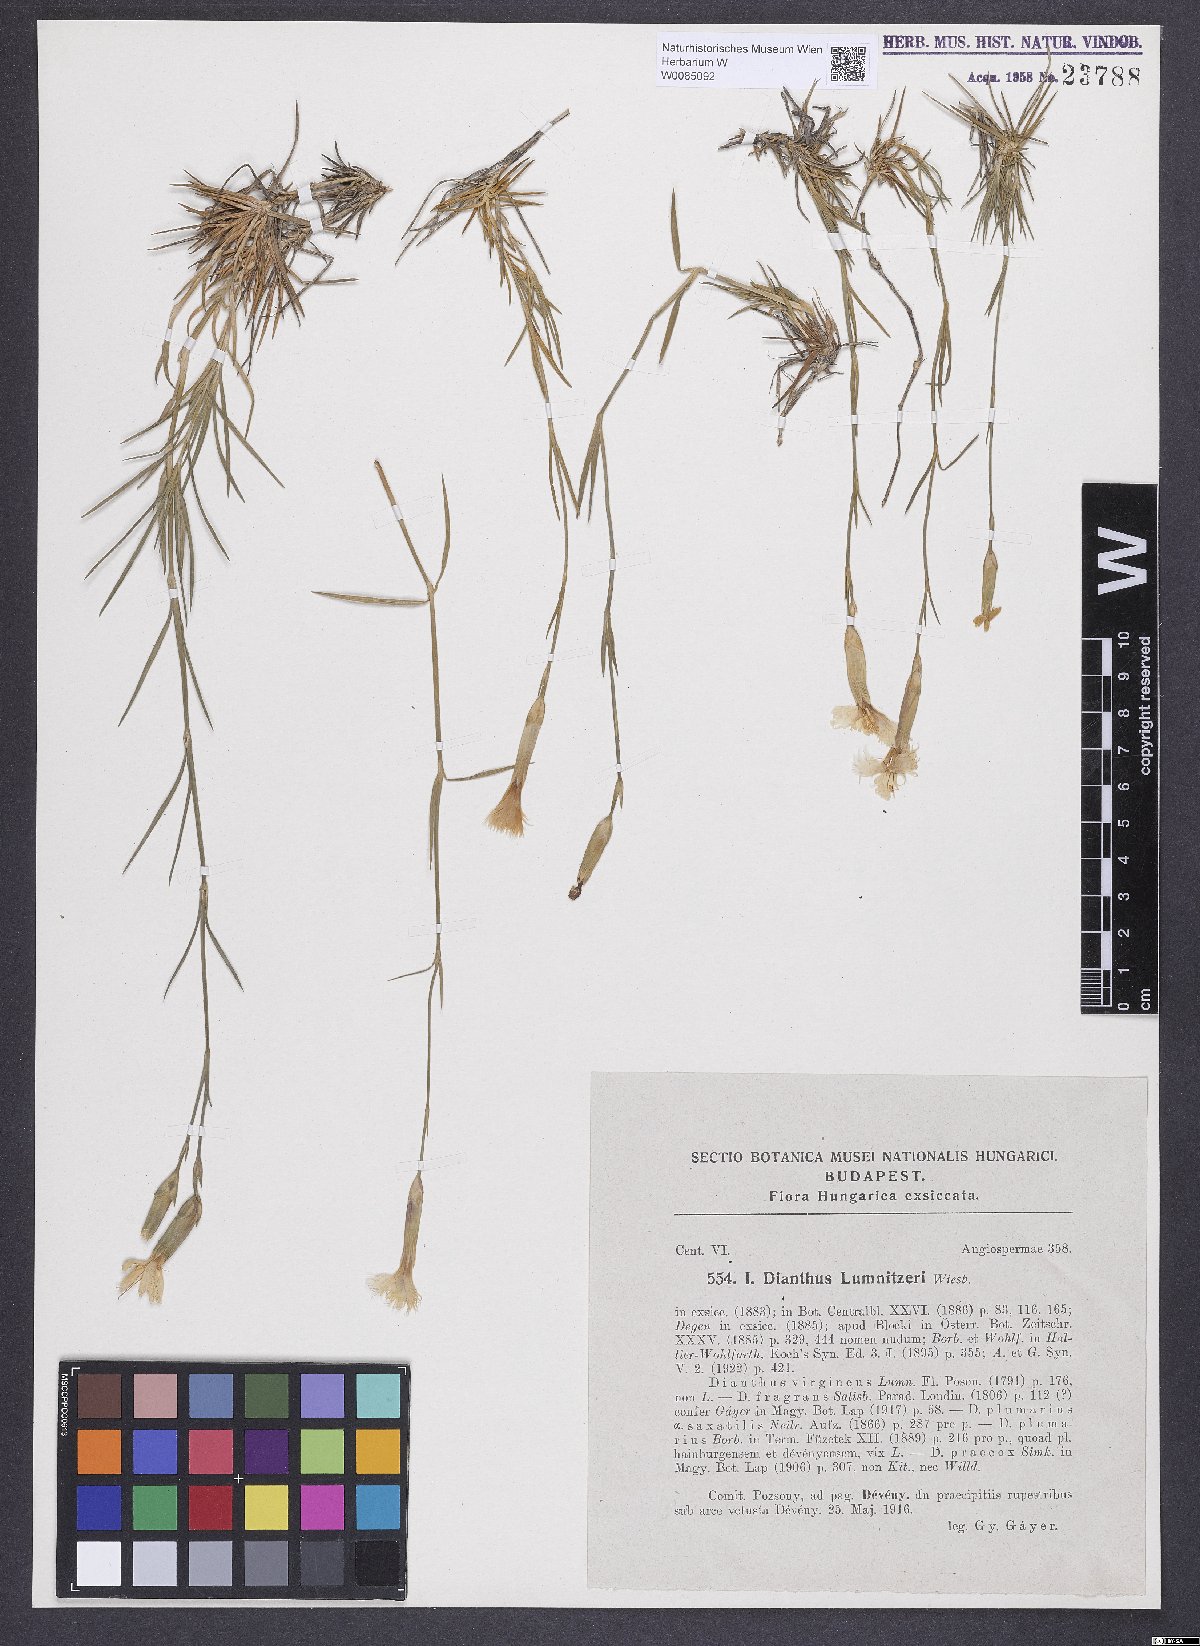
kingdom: Plantae
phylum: Tracheophyta
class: Magnoliopsida
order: Caryophyllales
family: Caryophyllaceae
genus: Dianthus
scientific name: Dianthus praecox
